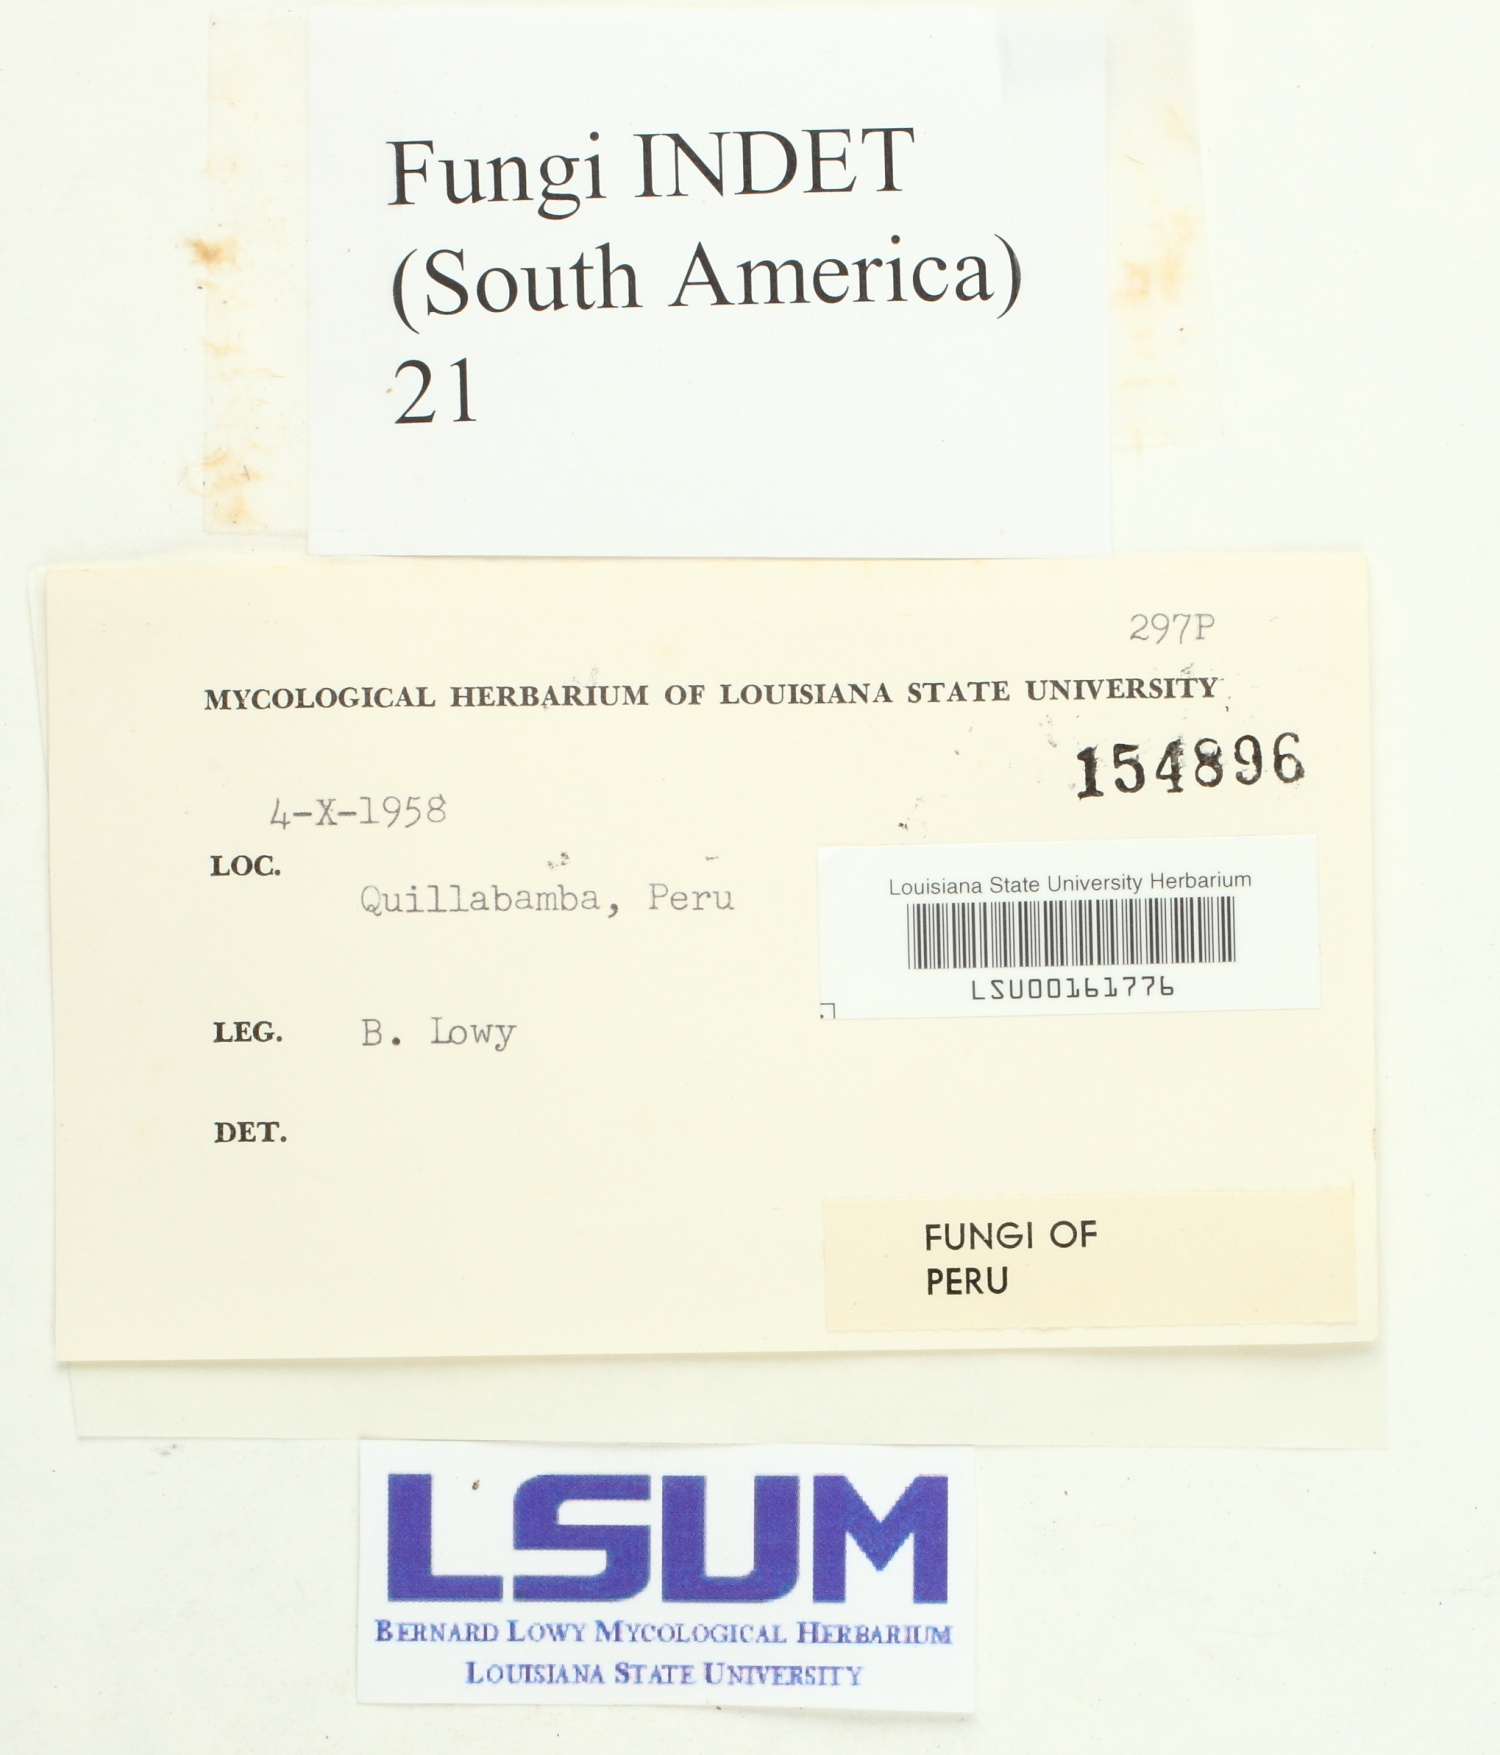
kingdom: Fungi
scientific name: Fungi
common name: Fungi
